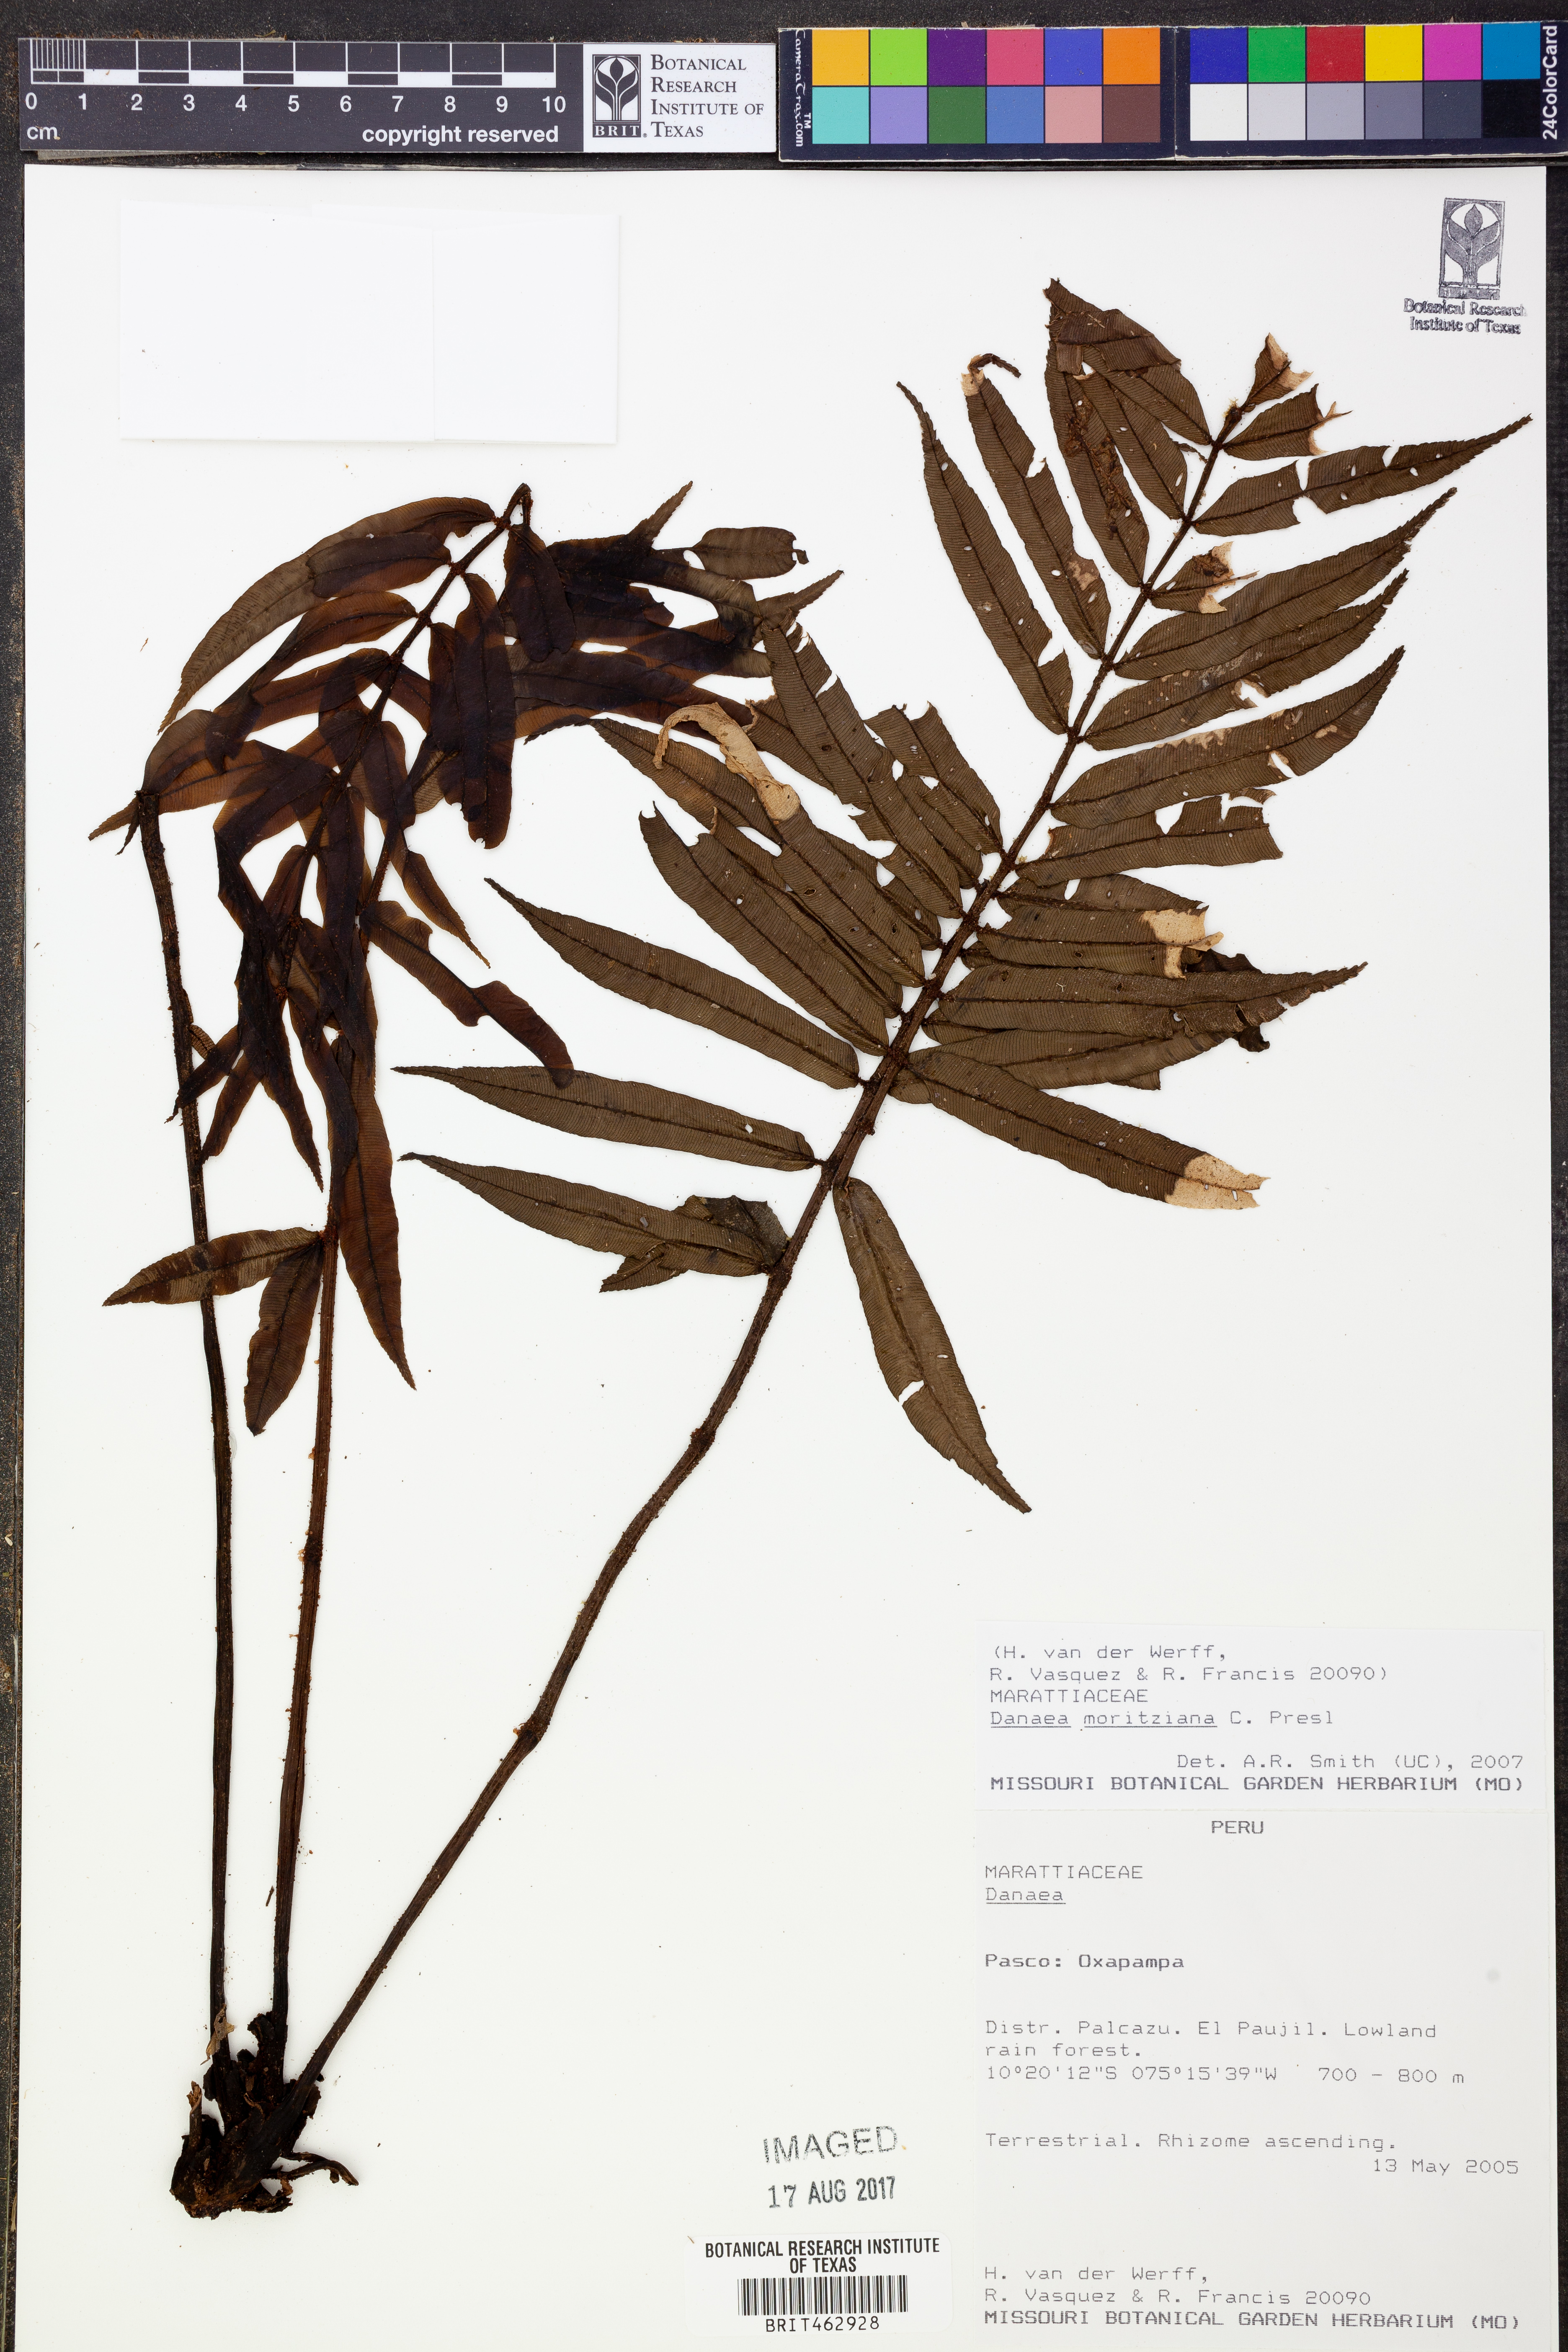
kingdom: Plantae
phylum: Tracheophyta
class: Polypodiopsida
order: Marattiales
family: Marattiaceae
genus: Danaea
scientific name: Danaea moritziana
